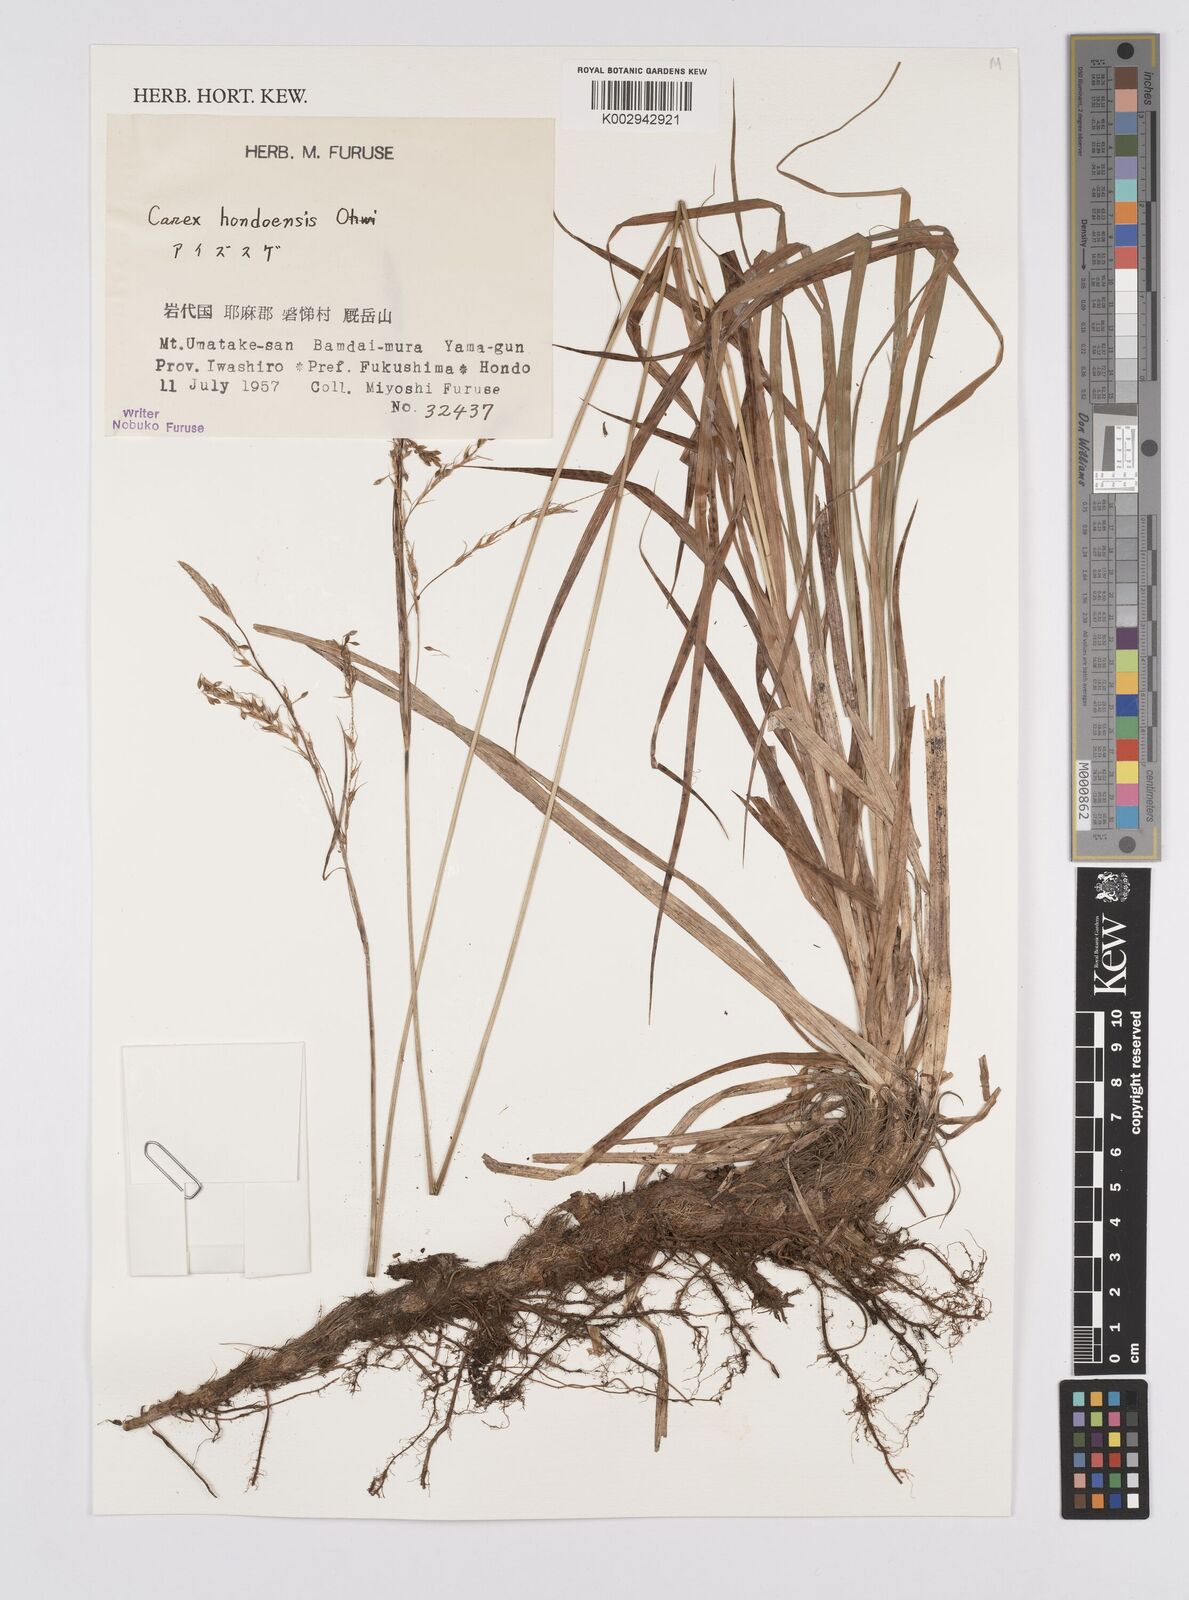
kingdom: Plantae
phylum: Tracheophyta
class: Liliopsida
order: Poales
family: Cyperaceae
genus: Carex
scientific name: Carex hondoensis
